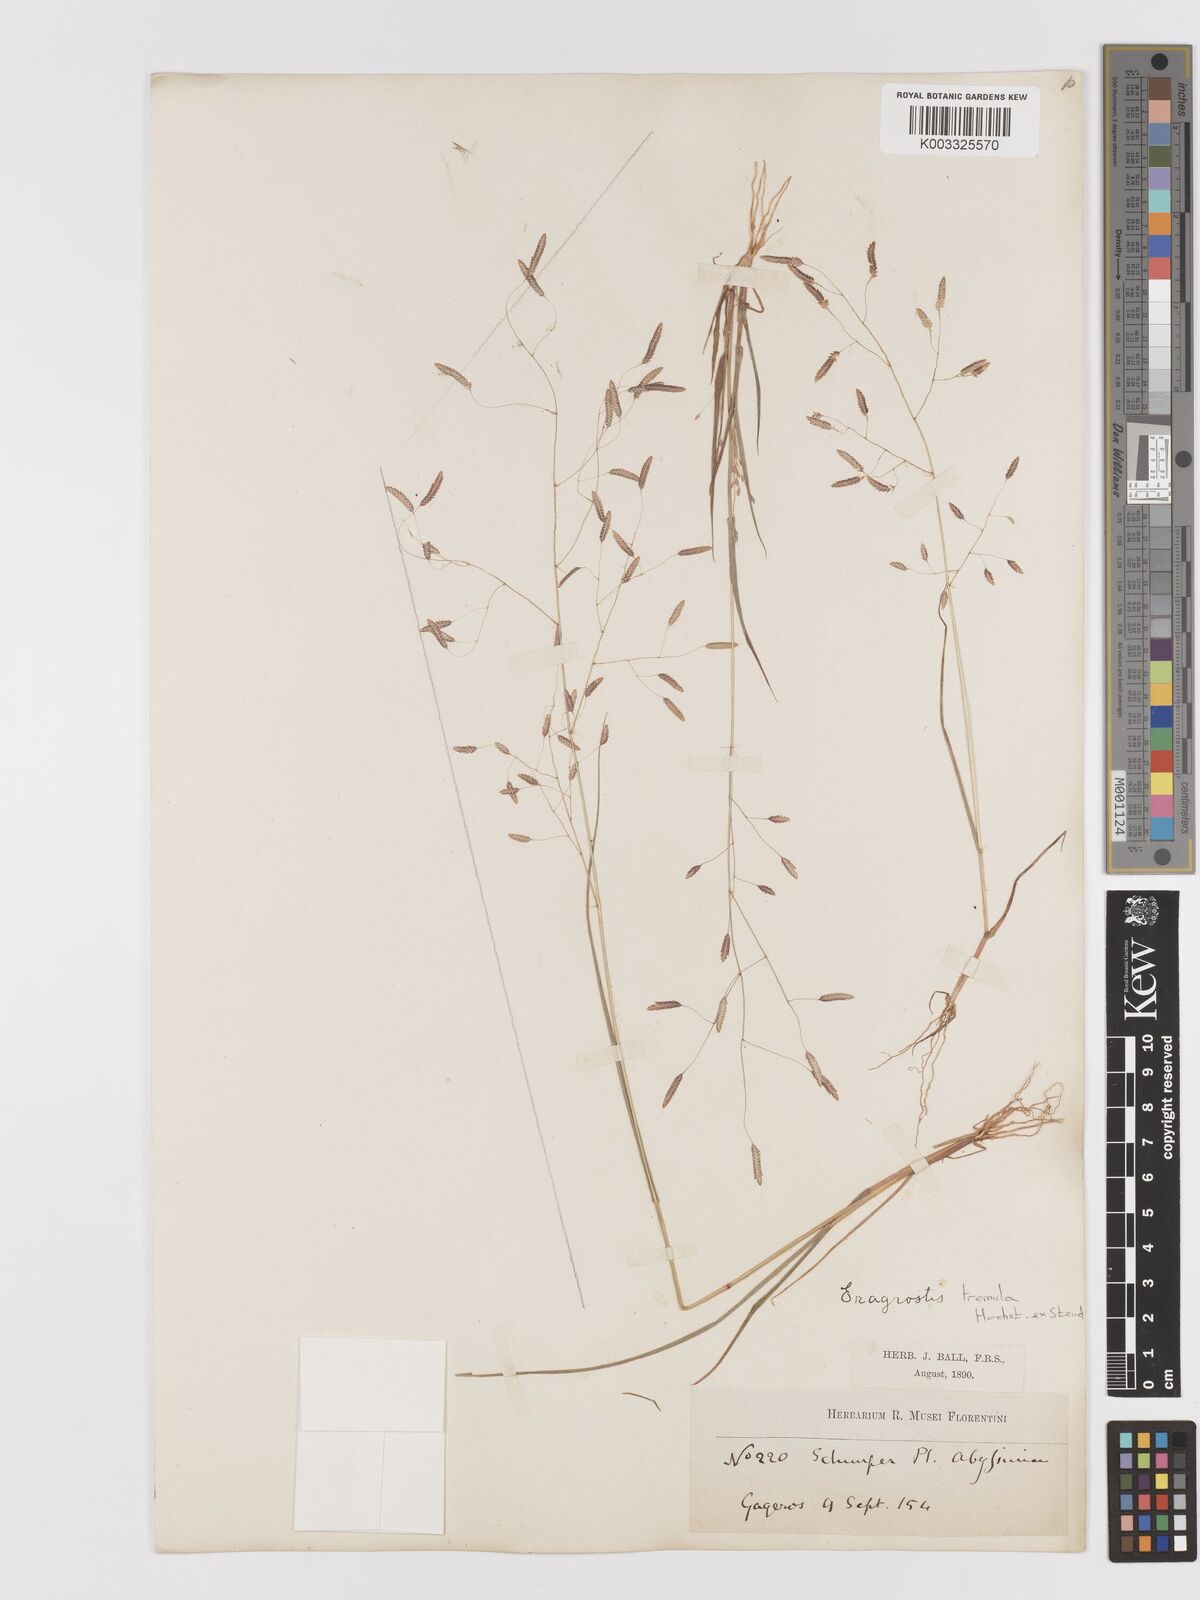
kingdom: Plantae
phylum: Tracheophyta
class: Liliopsida
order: Poales
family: Poaceae
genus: Eragrostis
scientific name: Eragrostis tremula
